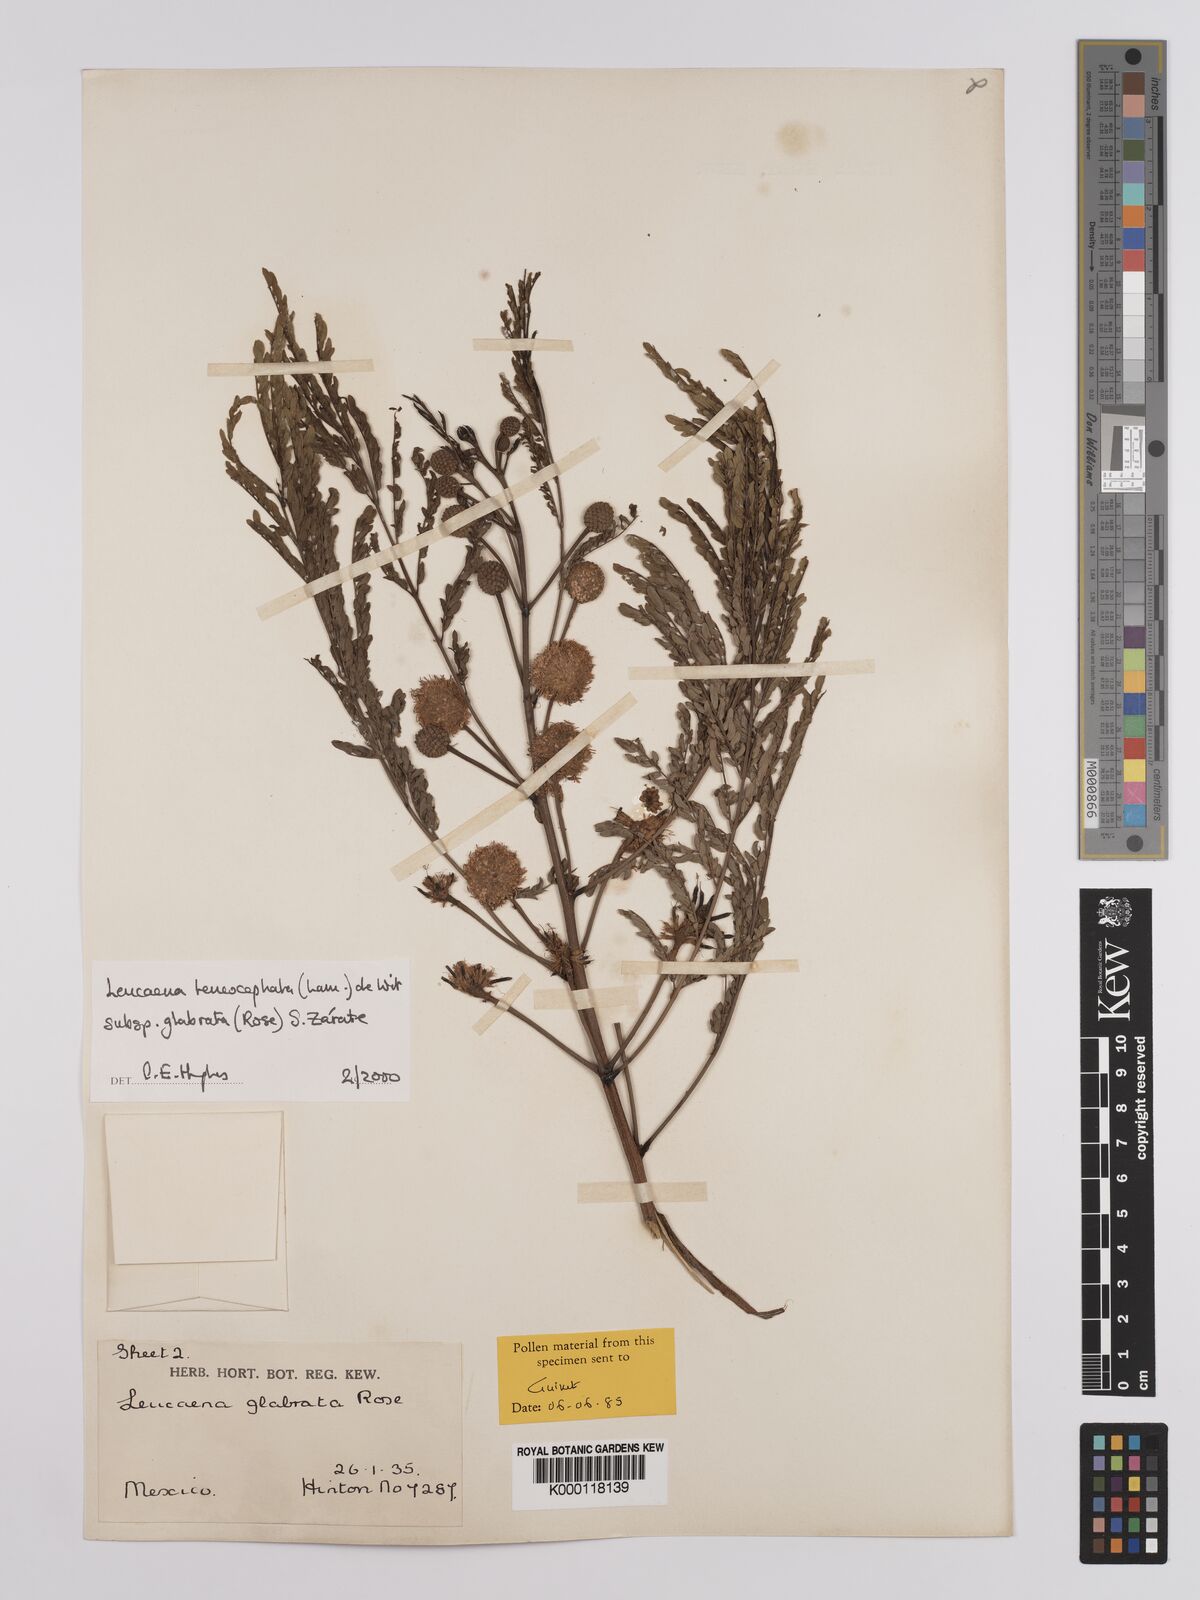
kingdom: Plantae
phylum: Tracheophyta
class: Magnoliopsida
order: Fabales
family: Fabaceae
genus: Leucaena
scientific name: Leucaena leucocephala
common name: White leadtree
